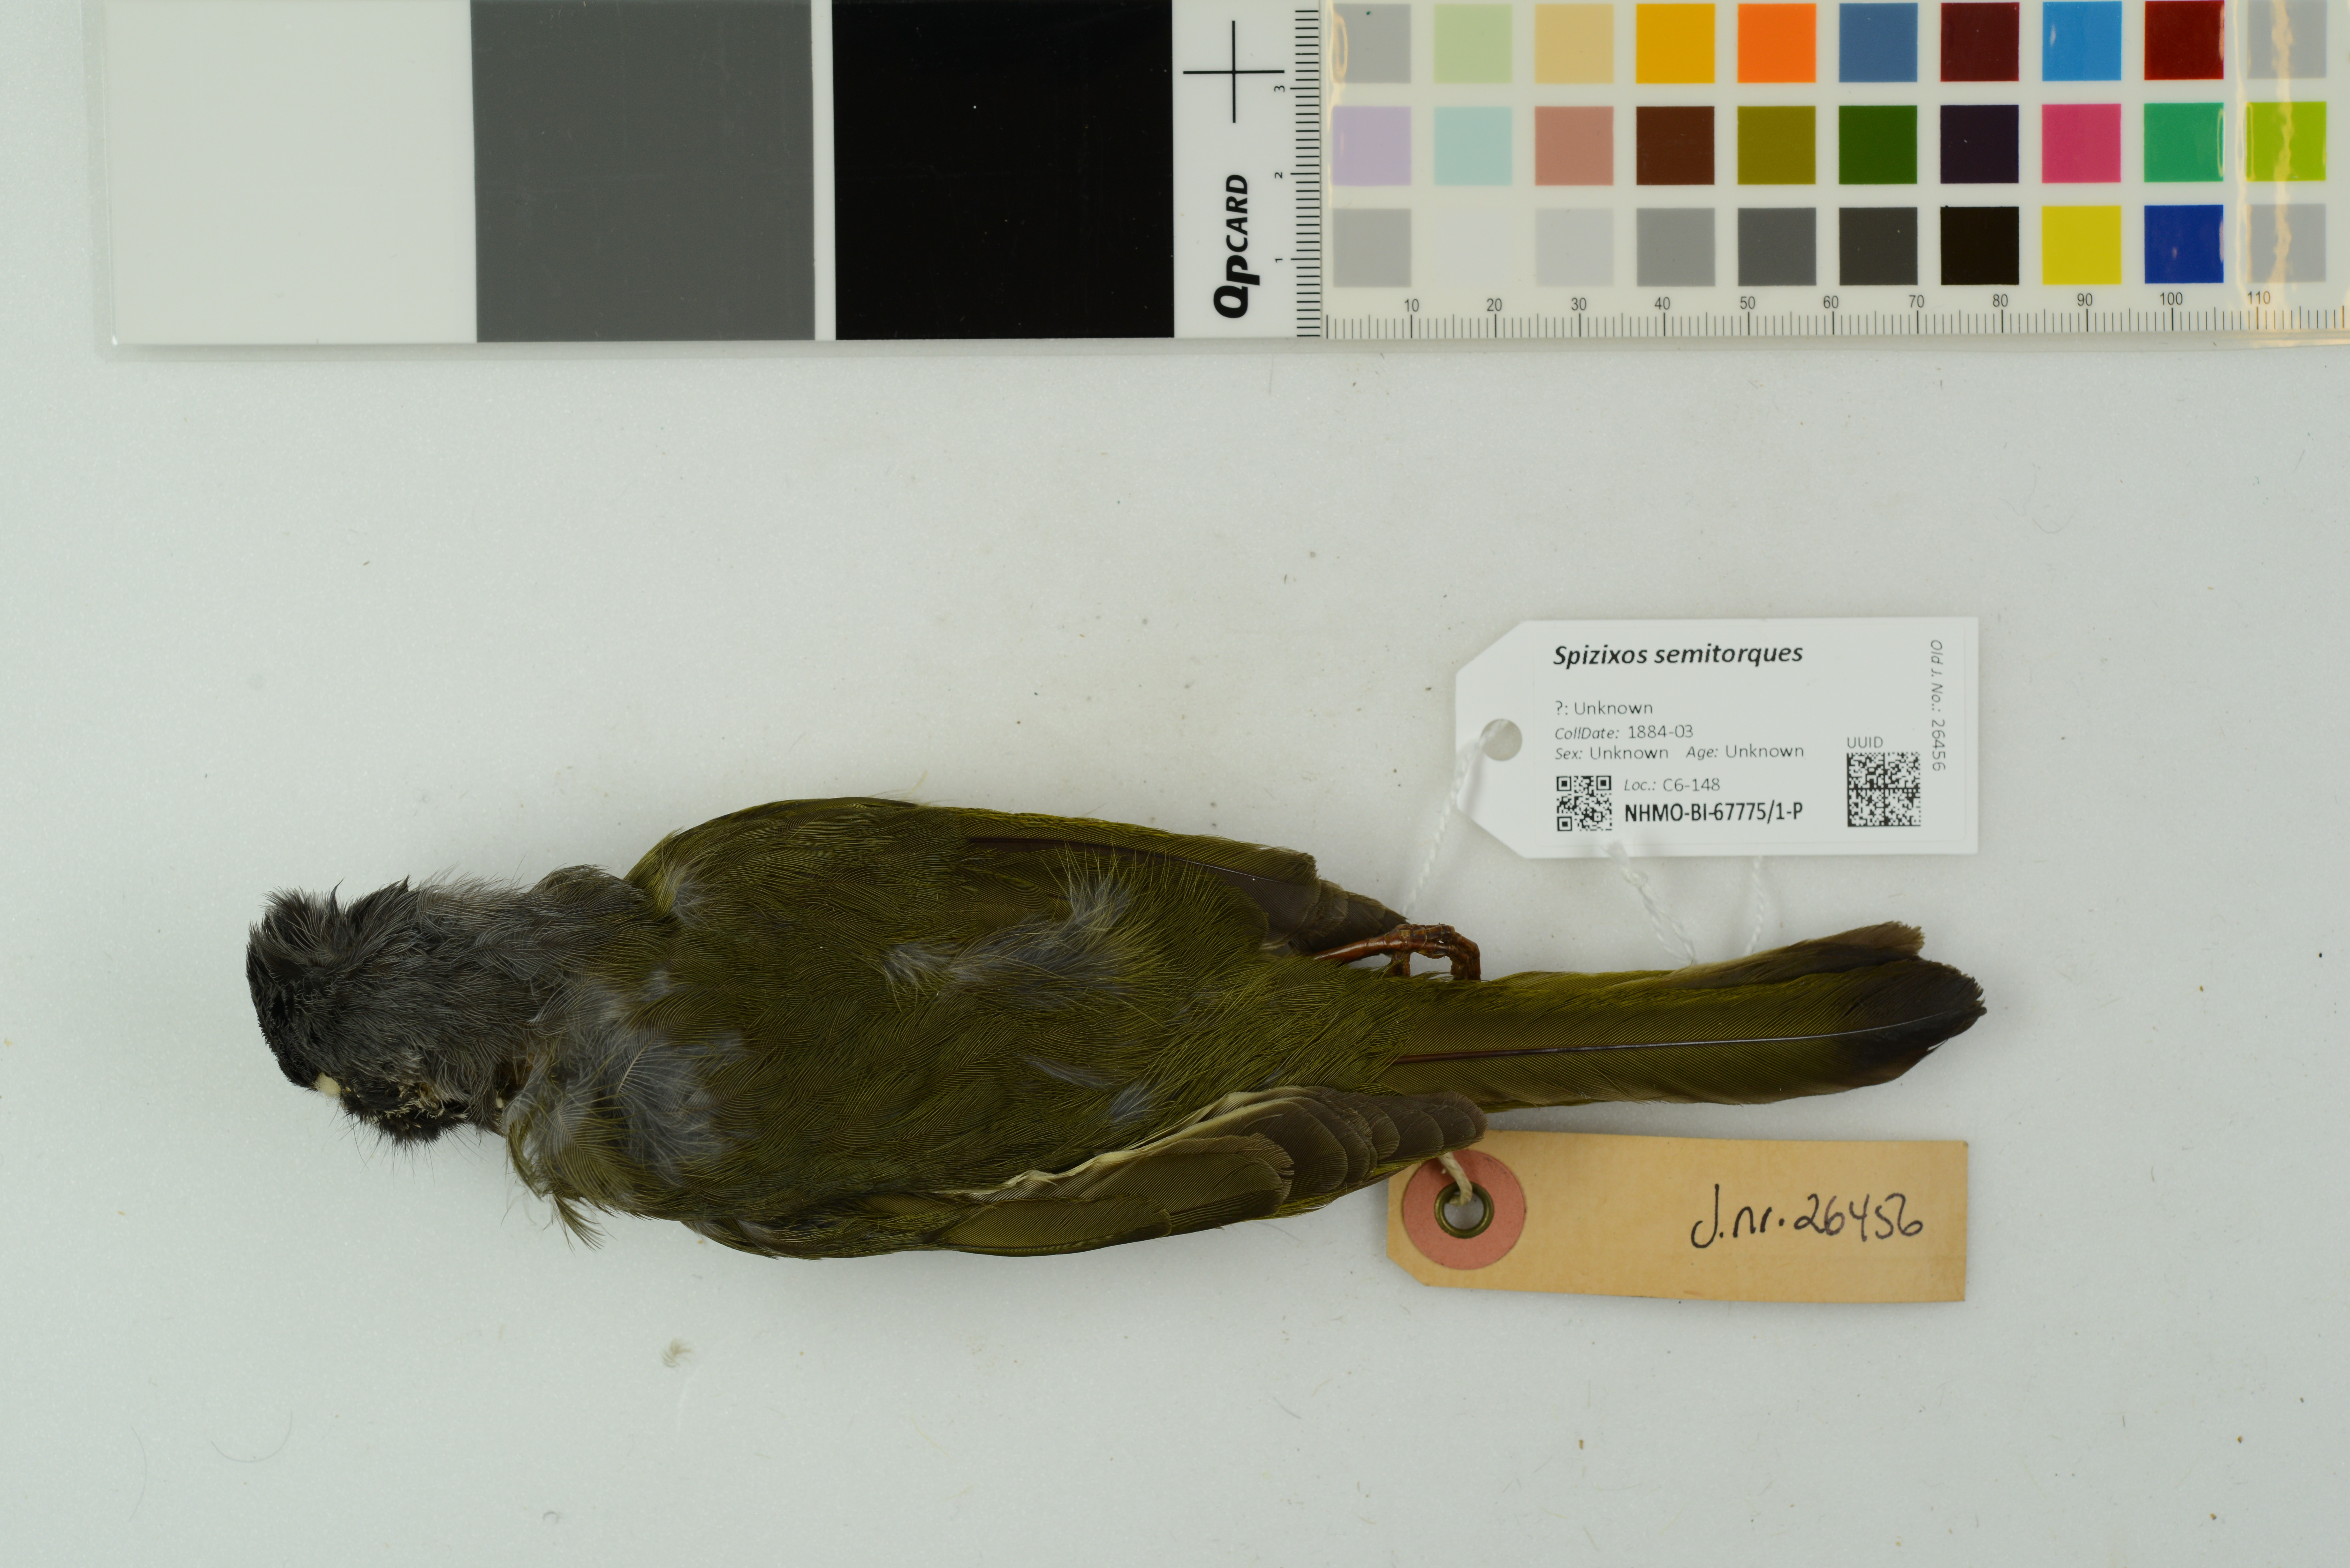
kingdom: Animalia
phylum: Chordata
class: Aves
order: Passeriformes
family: Pycnonotidae
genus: Spizixos
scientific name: Spizixos semitorques
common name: Collared finchbill
